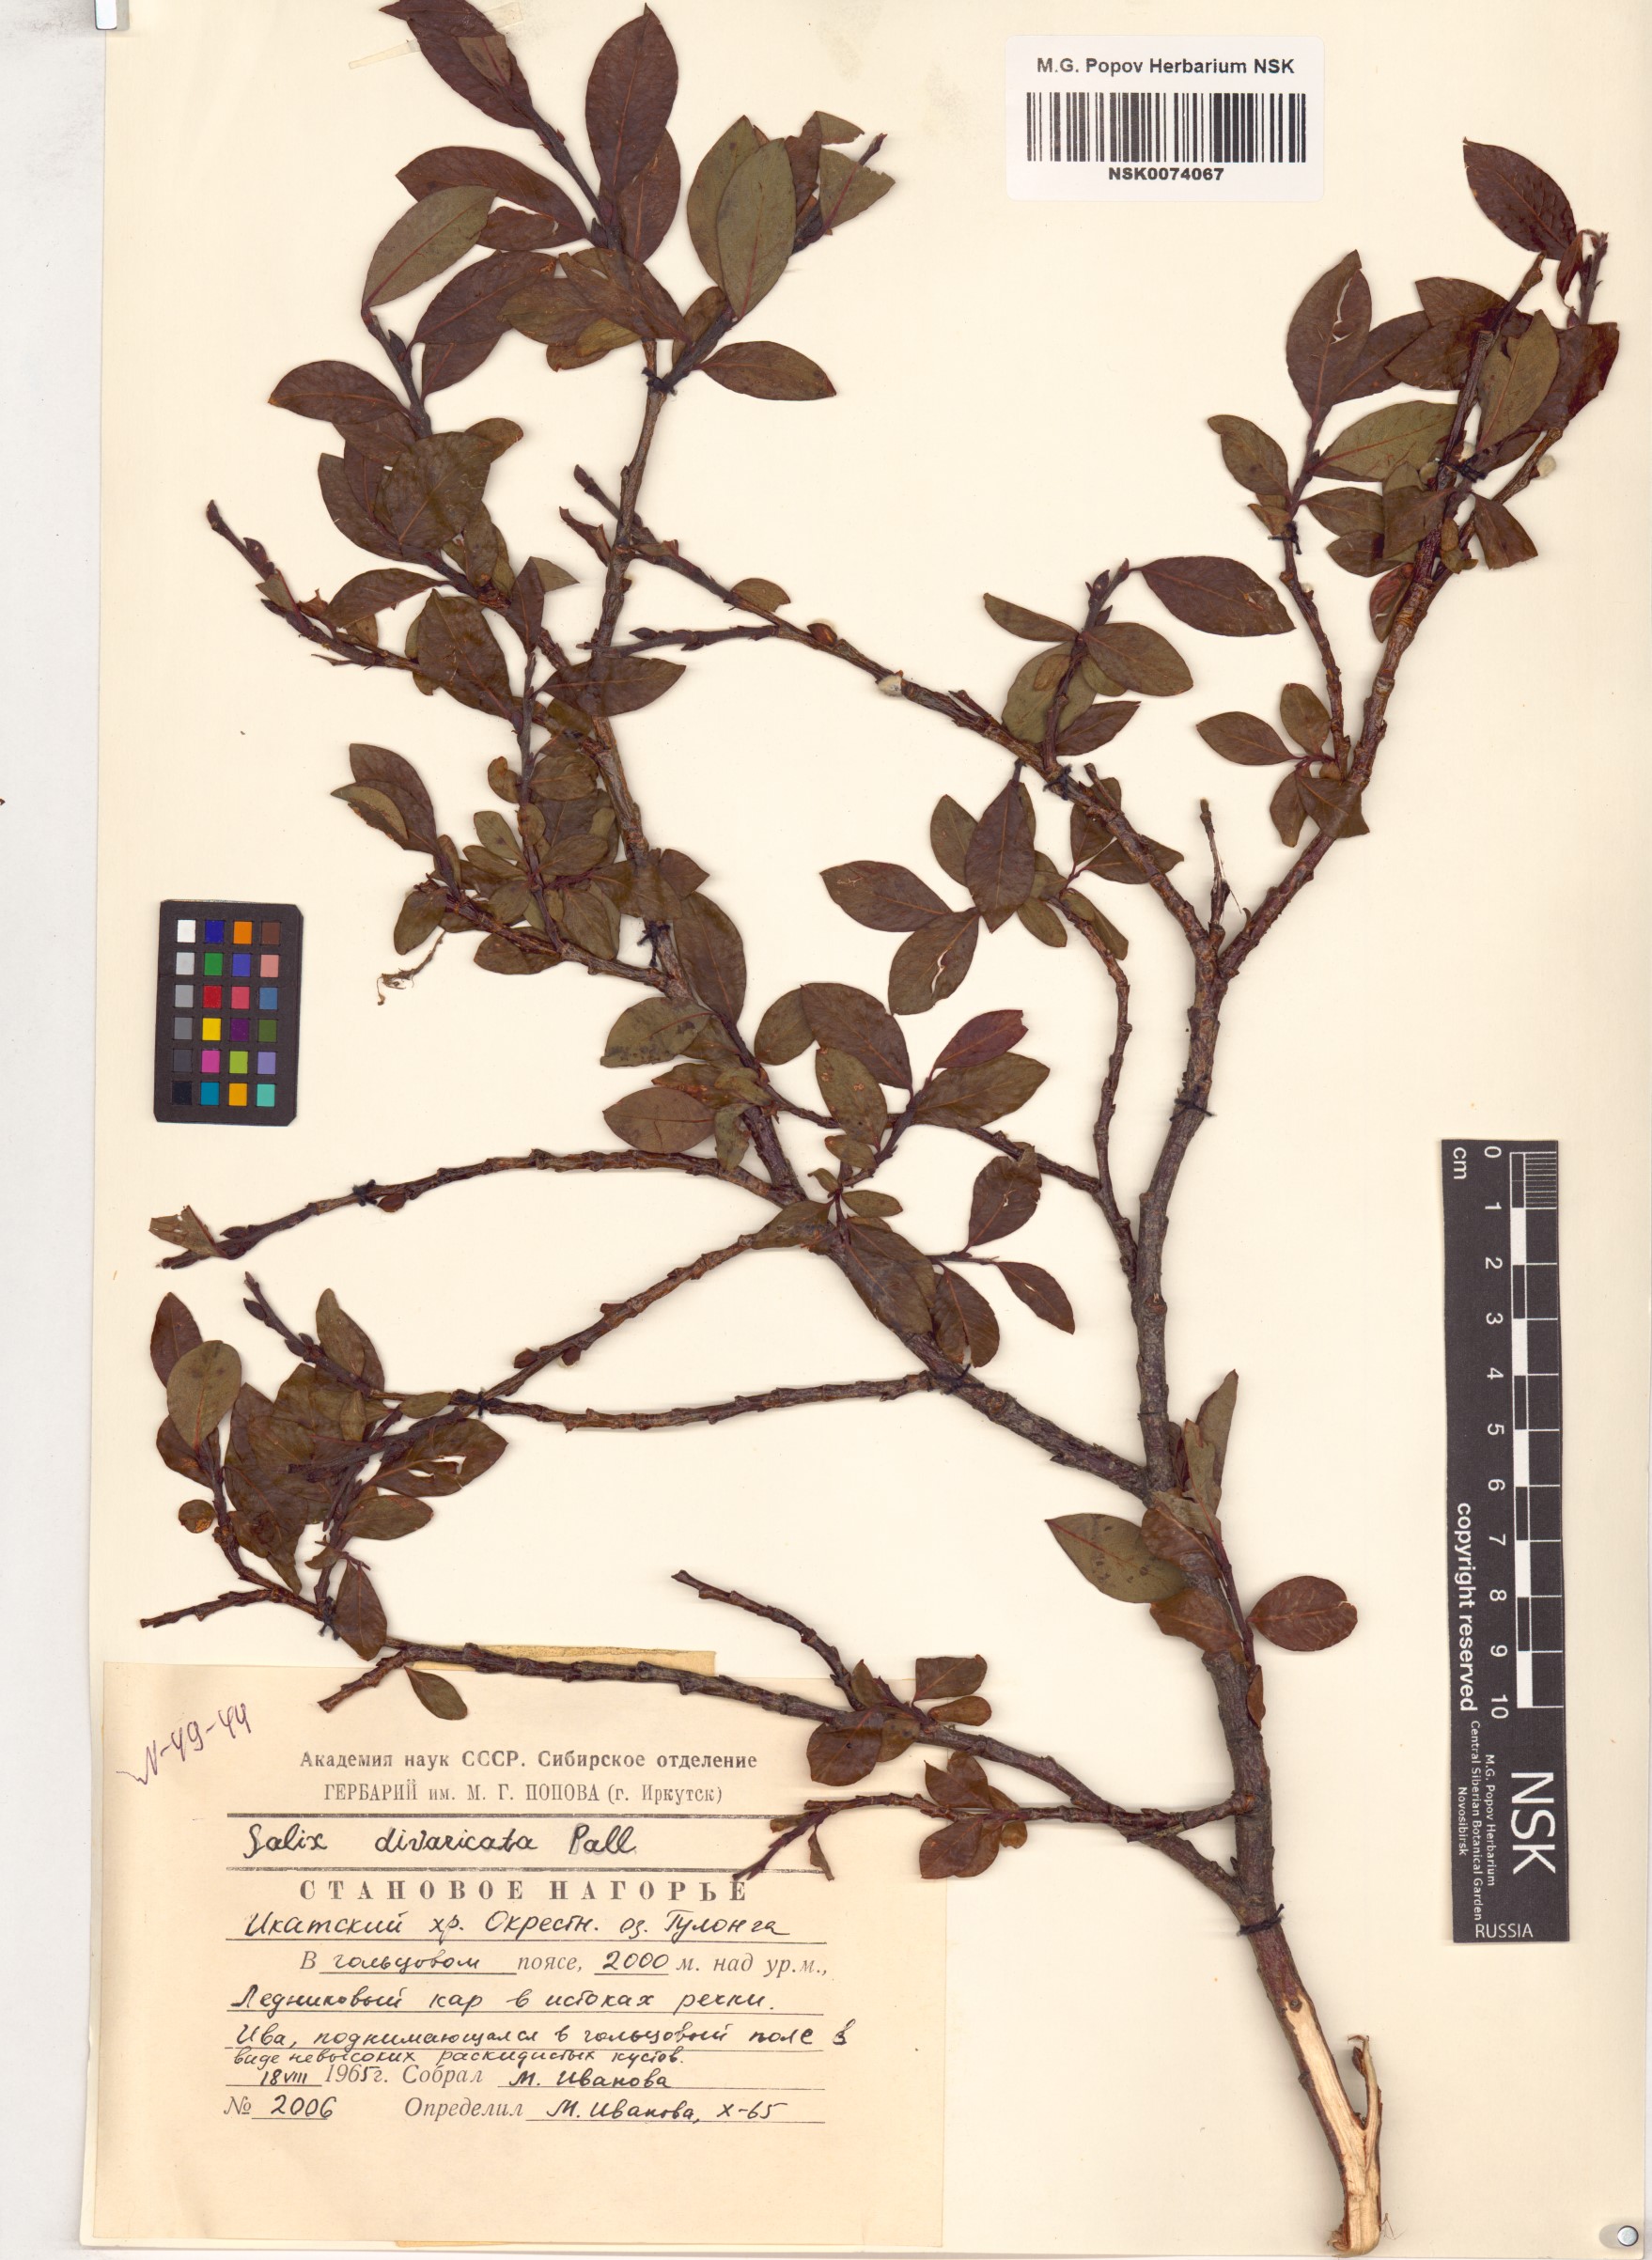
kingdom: Plantae
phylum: Tracheophyta
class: Magnoliopsida
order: Malpighiales
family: Salicaceae
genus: Salix
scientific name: Salix divaricata
